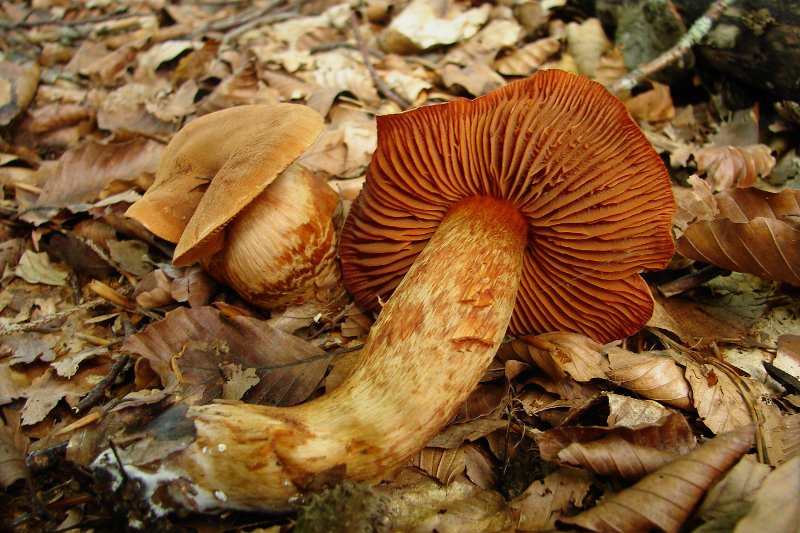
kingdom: Fungi
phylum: Basidiomycota
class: Agaricomycetes
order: Agaricales
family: Cortinariaceae
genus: Cortinarius
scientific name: Cortinarius rubellus
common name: puklet gift-slørhat
